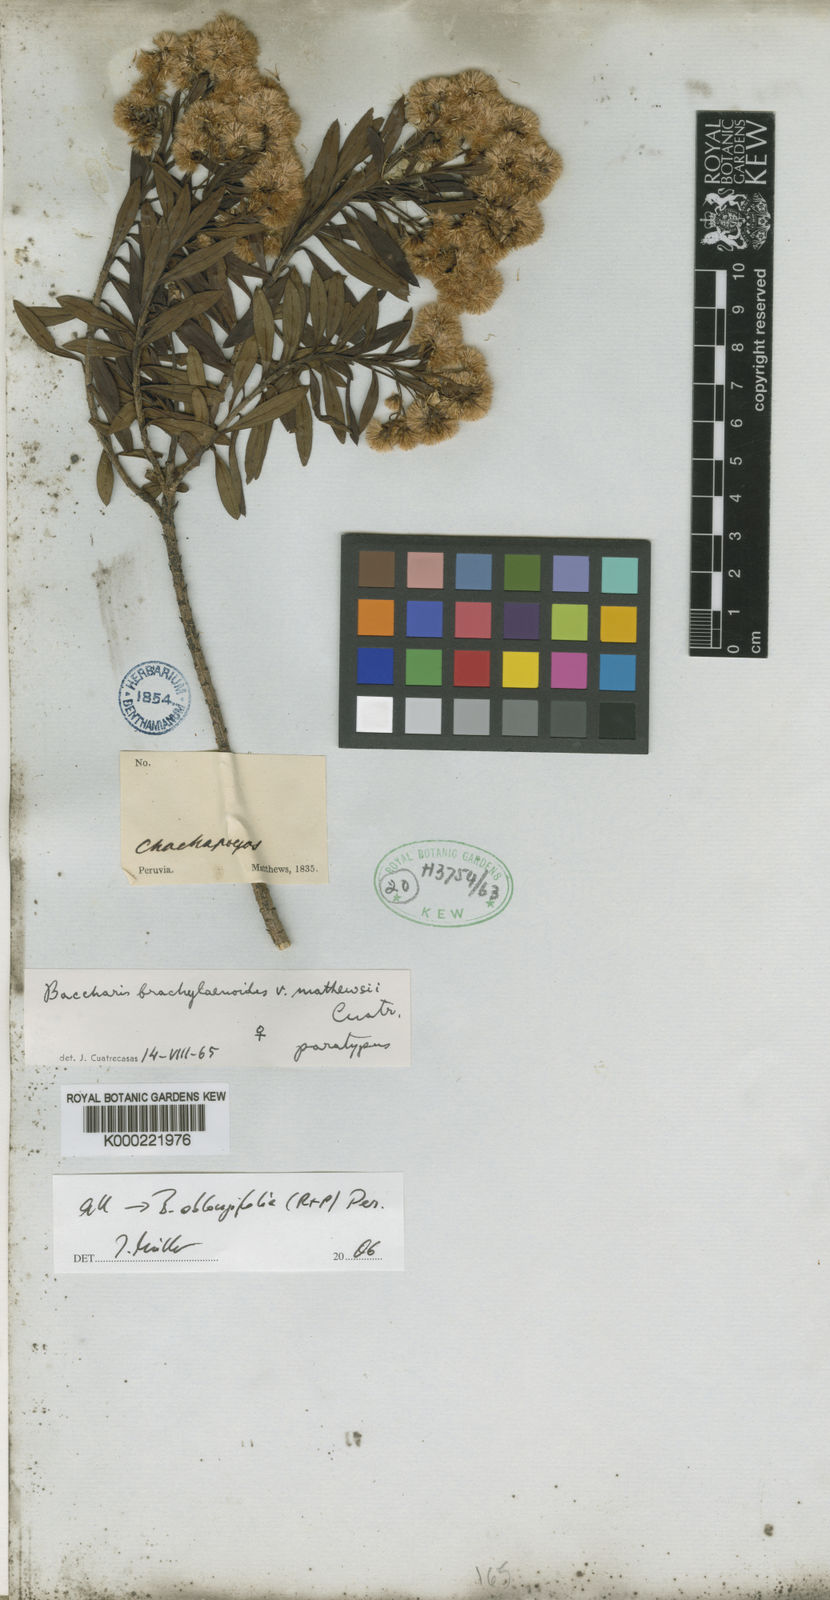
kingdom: Plantae
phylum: Tracheophyta
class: Magnoliopsida
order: Asterales
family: Asteraceae
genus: Baccharis
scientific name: Baccharis oblongifolia
